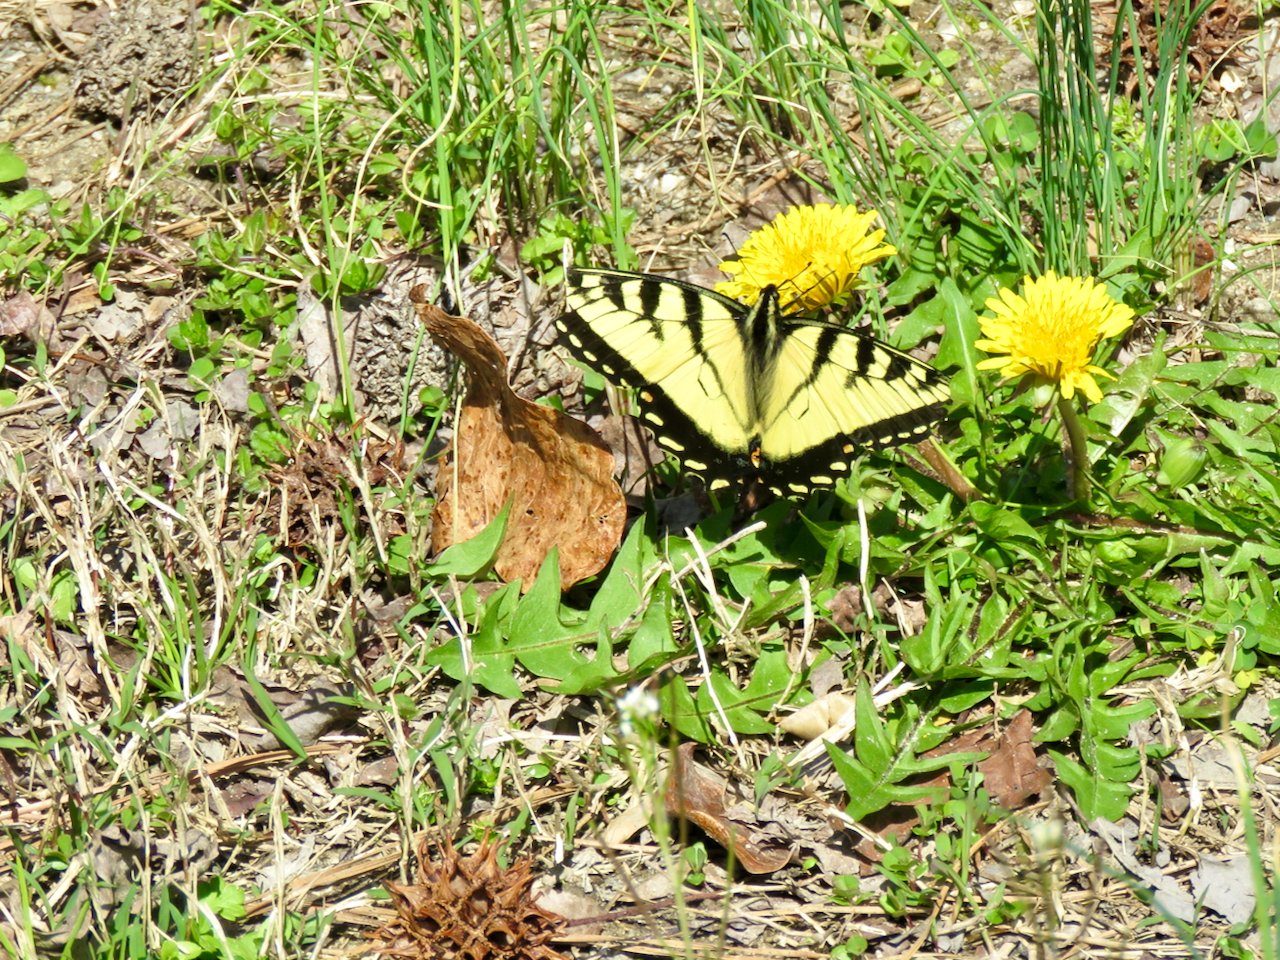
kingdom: Animalia
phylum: Arthropoda
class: Insecta
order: Lepidoptera
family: Papilionidae
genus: Pterourus
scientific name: Pterourus glaucus
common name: Eastern Tiger Swallowtail
